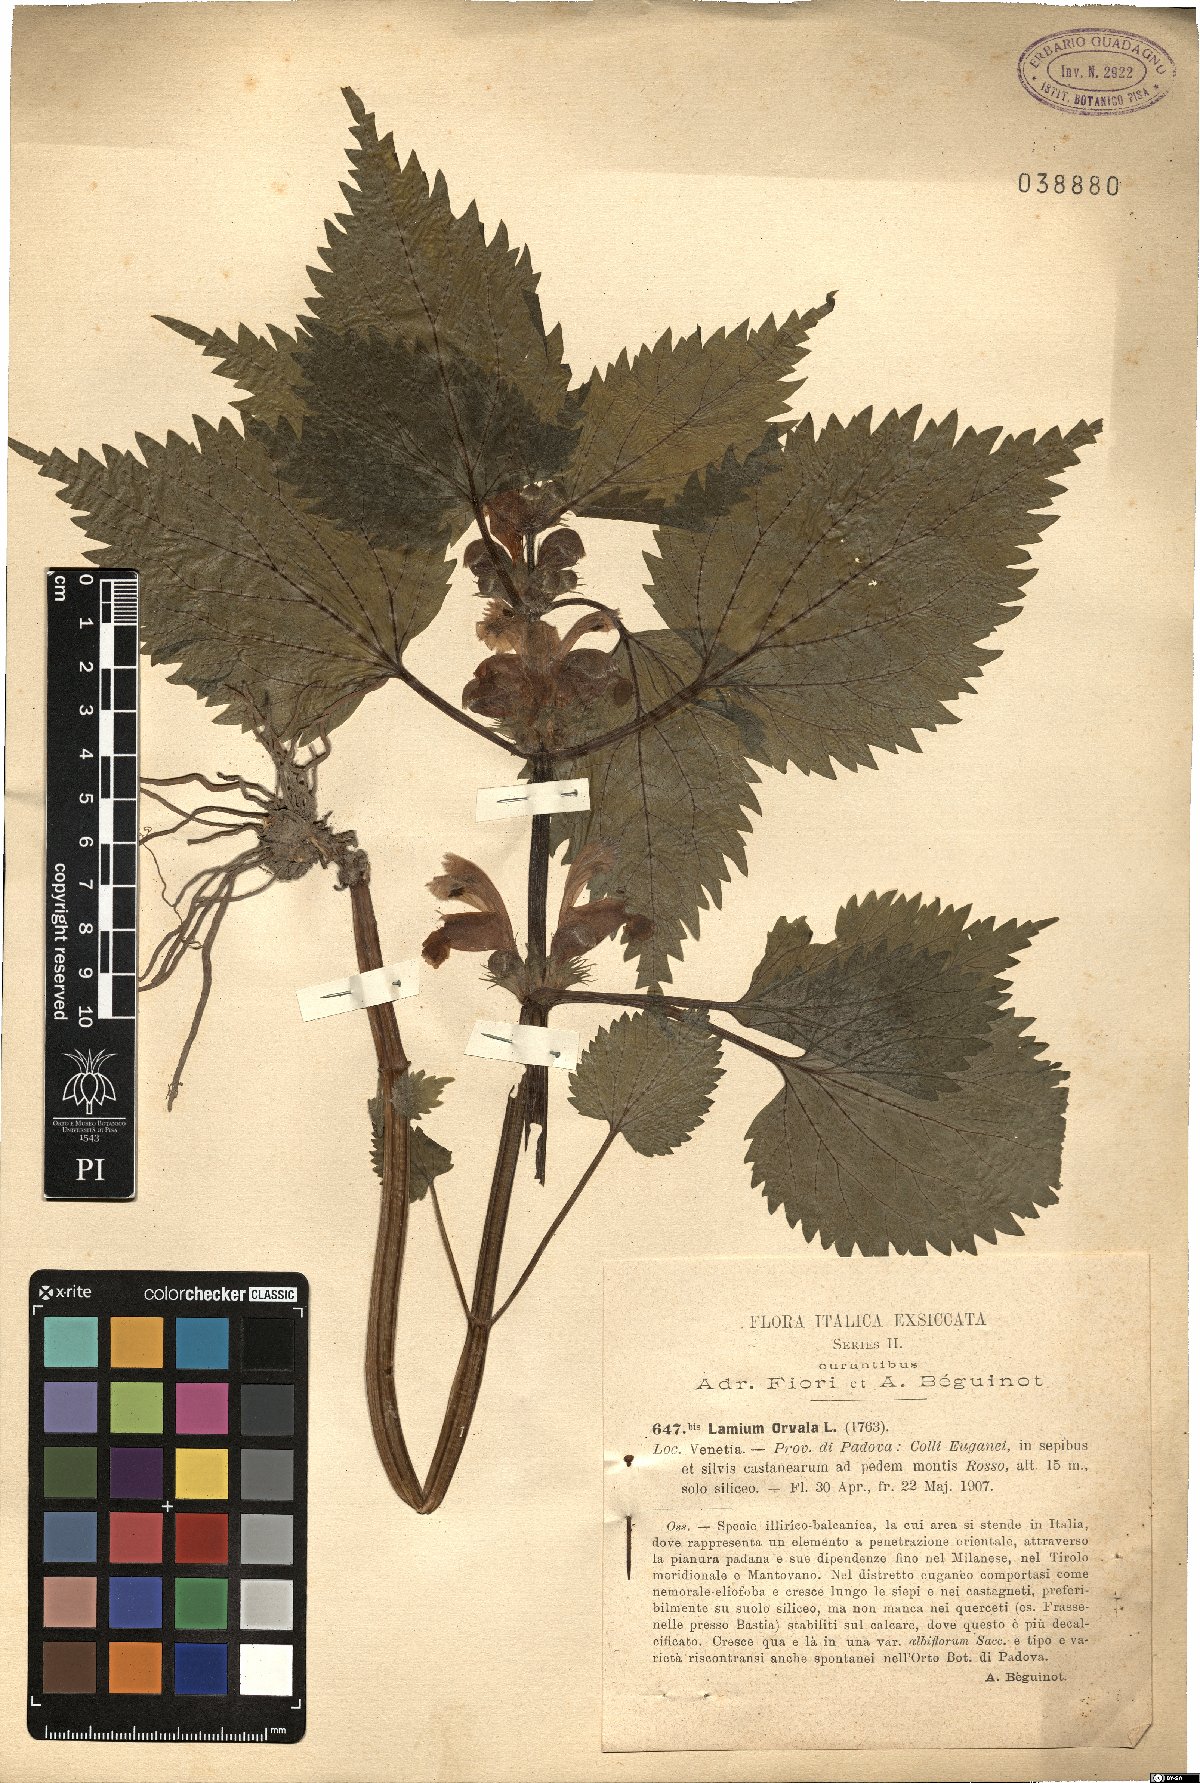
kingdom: Plantae
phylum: Tracheophyta
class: Magnoliopsida
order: Lamiales
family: Lamiaceae
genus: Lamium
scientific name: Lamium orvala
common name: Balm-leaved archangel
